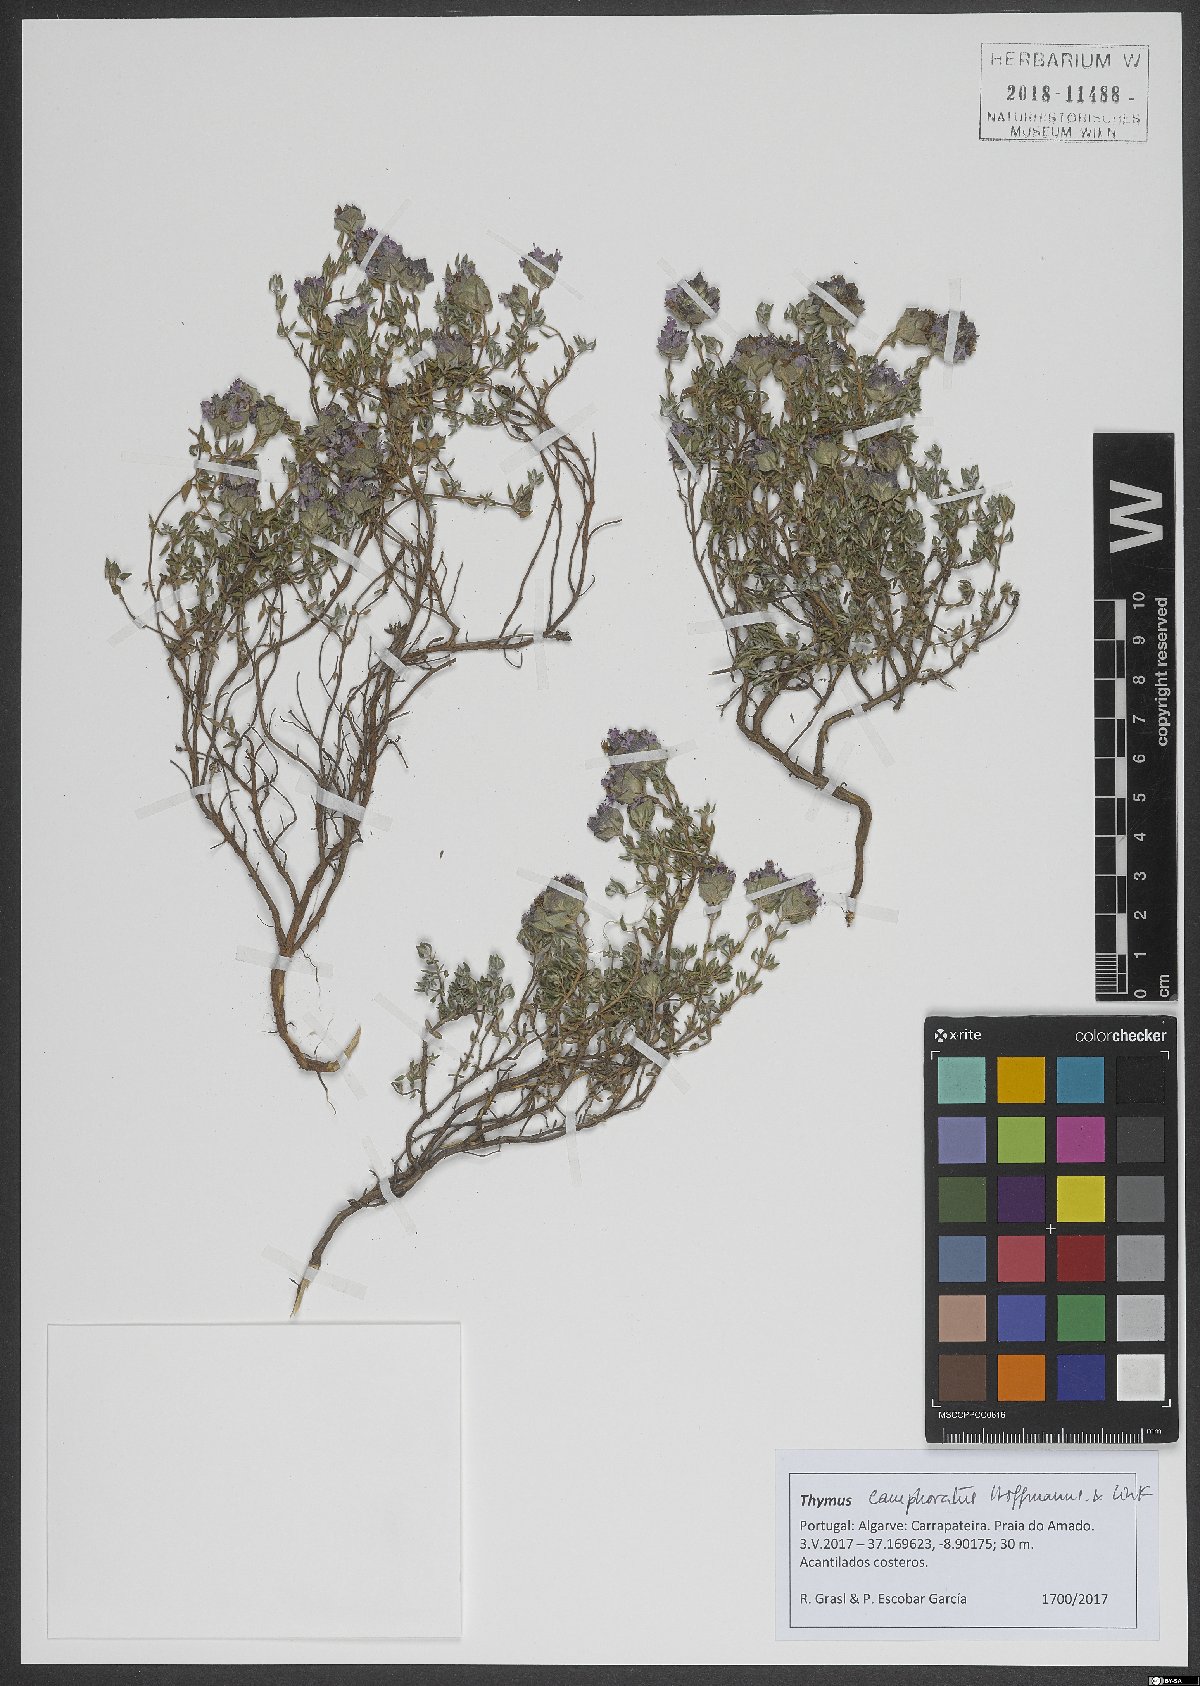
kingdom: Plantae
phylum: Tracheophyta
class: Magnoliopsida
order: Lamiales
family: Lamiaceae
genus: Thymus
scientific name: Thymus camphoratus
